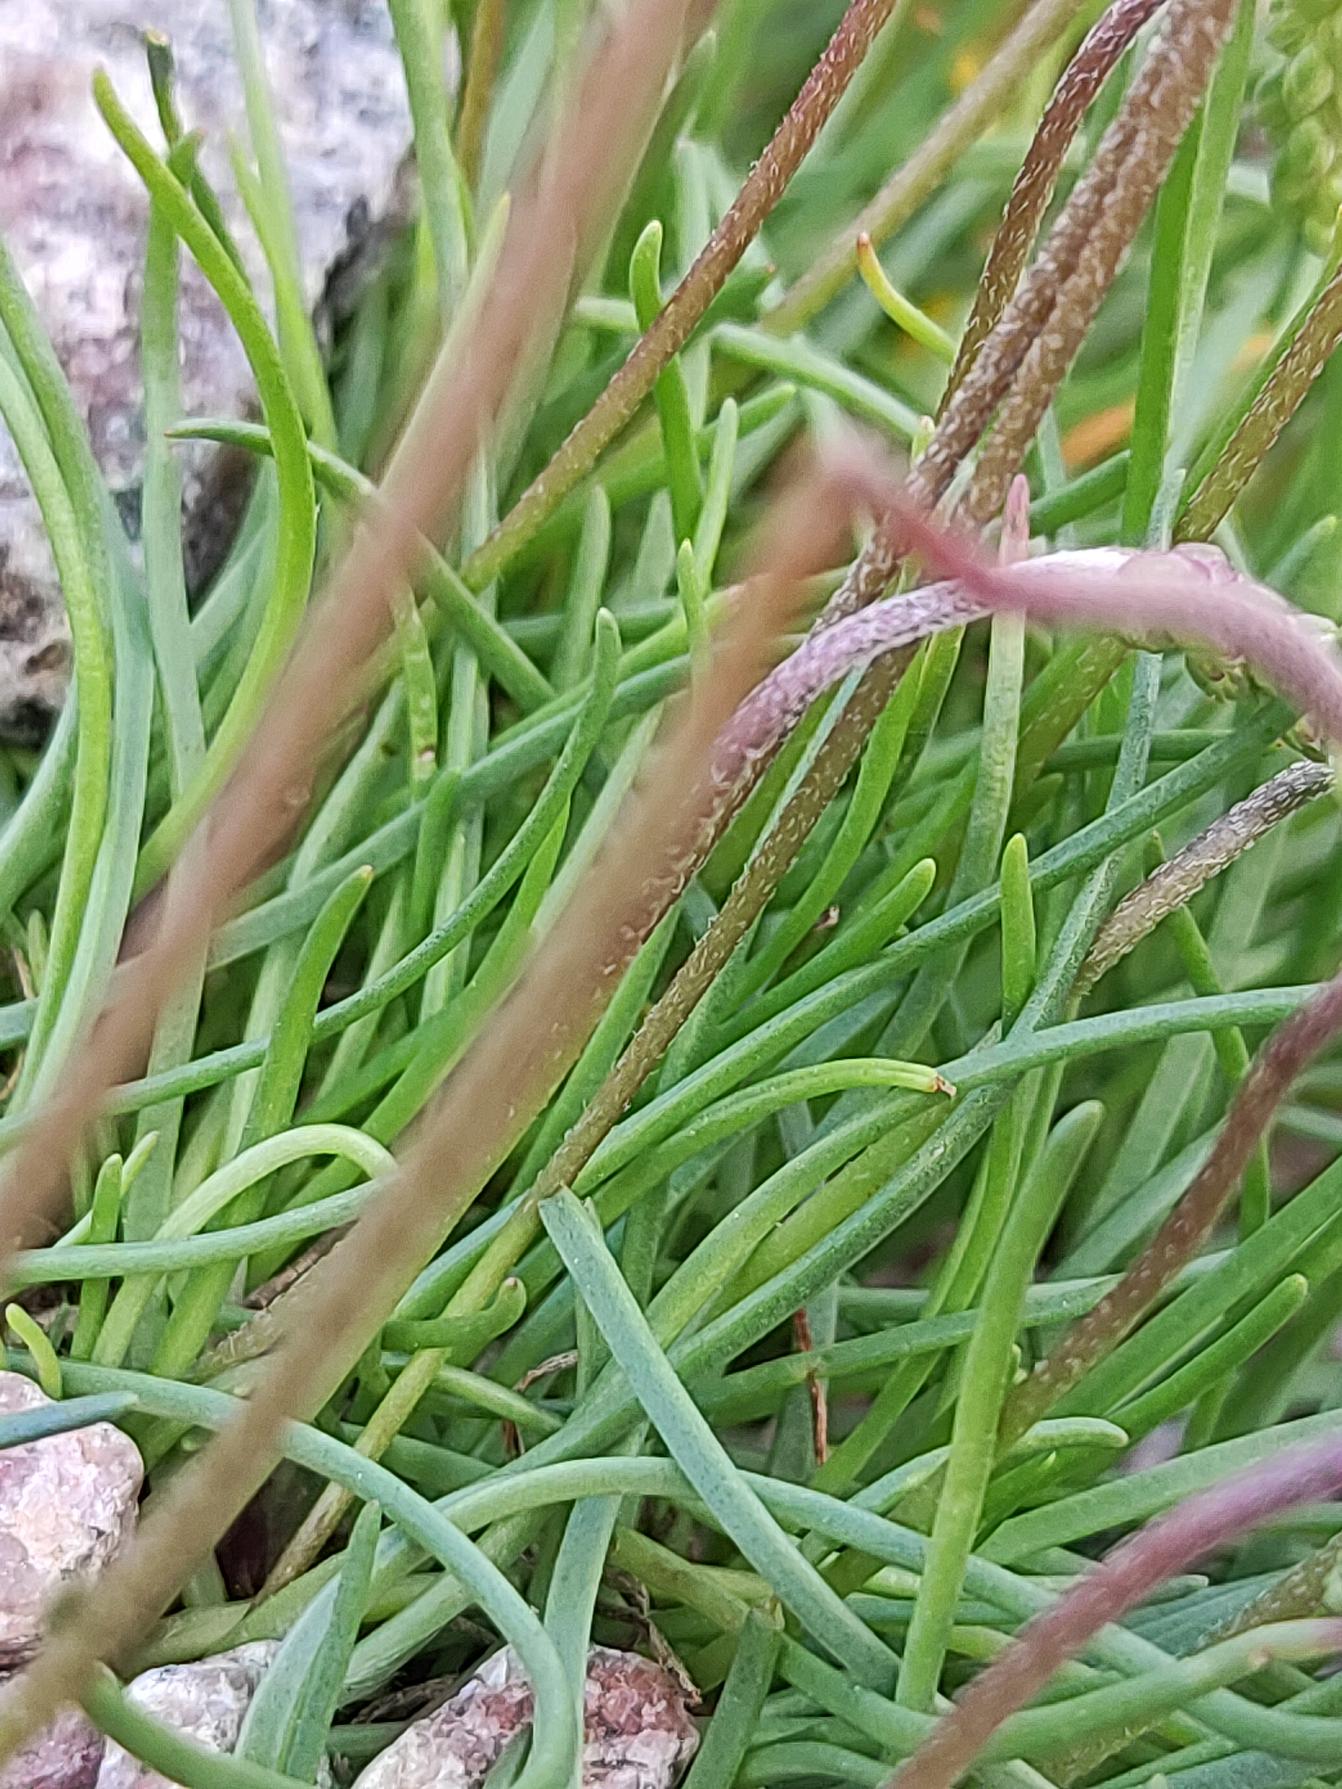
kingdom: Plantae
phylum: Tracheophyta
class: Magnoliopsida
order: Lamiales
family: Plantaginaceae
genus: Plantago
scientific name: Plantago maritima
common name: Strand-vejbred
